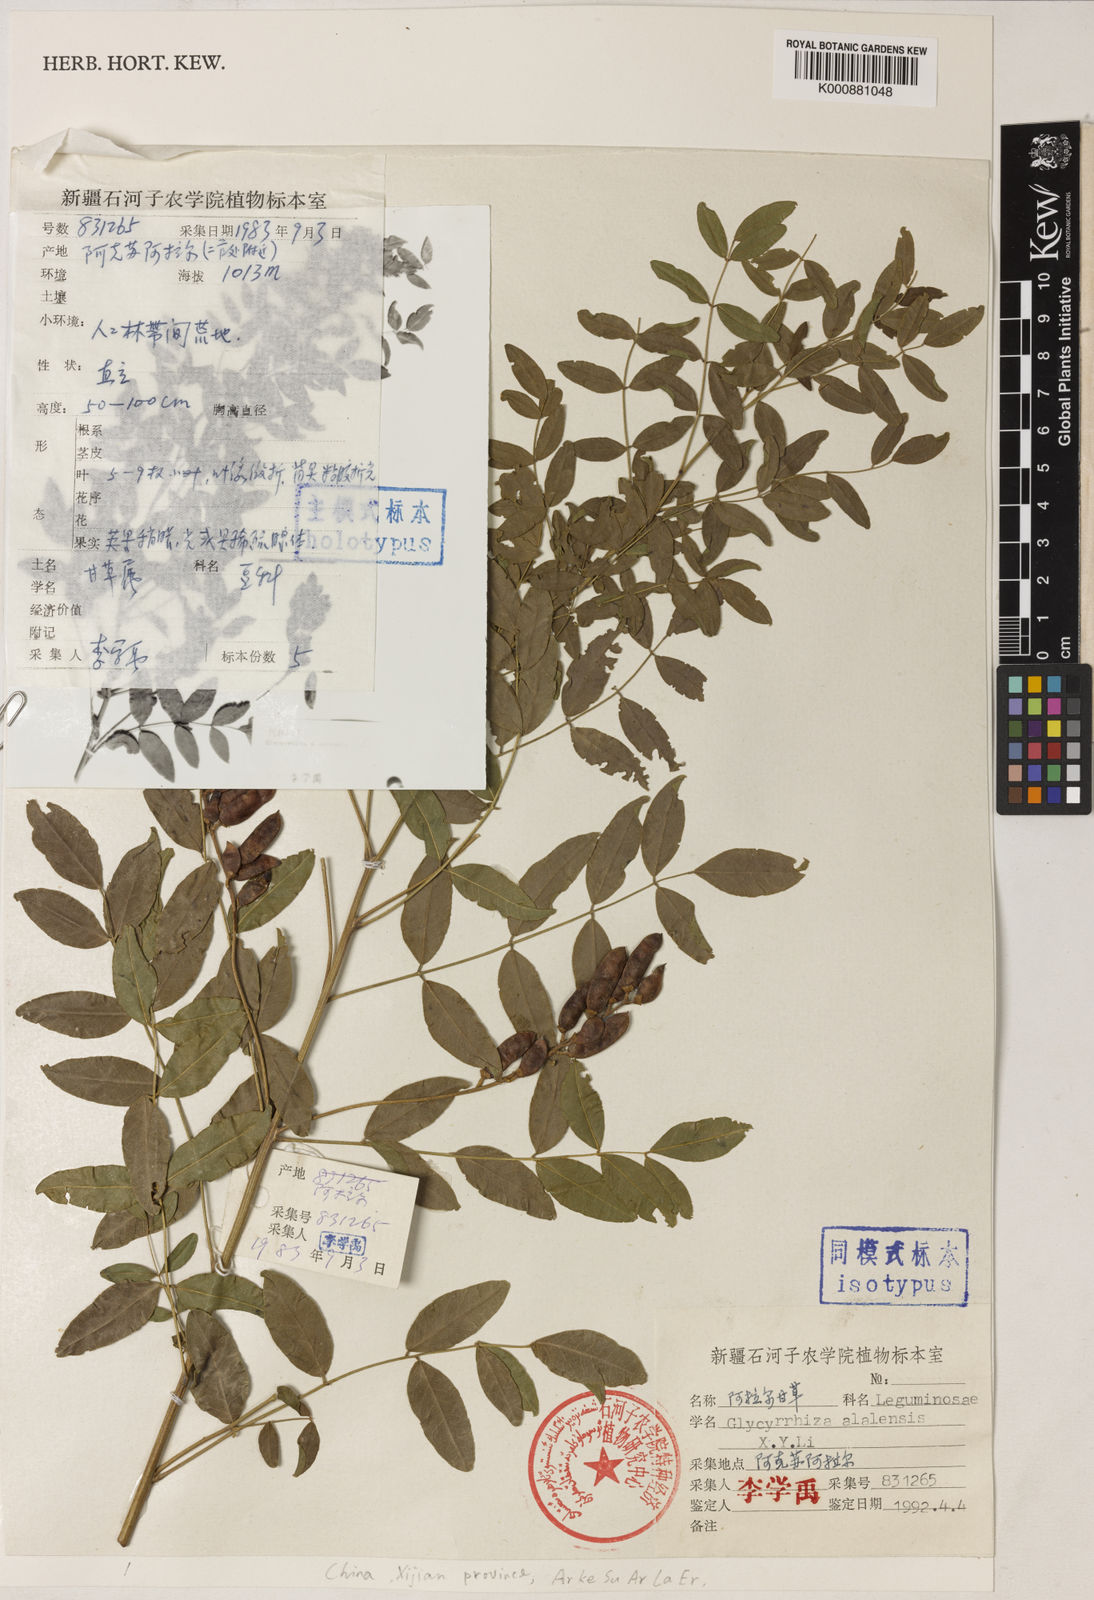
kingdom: Plantae
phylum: Tracheophyta
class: Magnoliopsida
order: Fabales
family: Fabaceae
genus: Glycyrrhiza
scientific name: Glycyrrhiza glabra
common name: Liquorice
